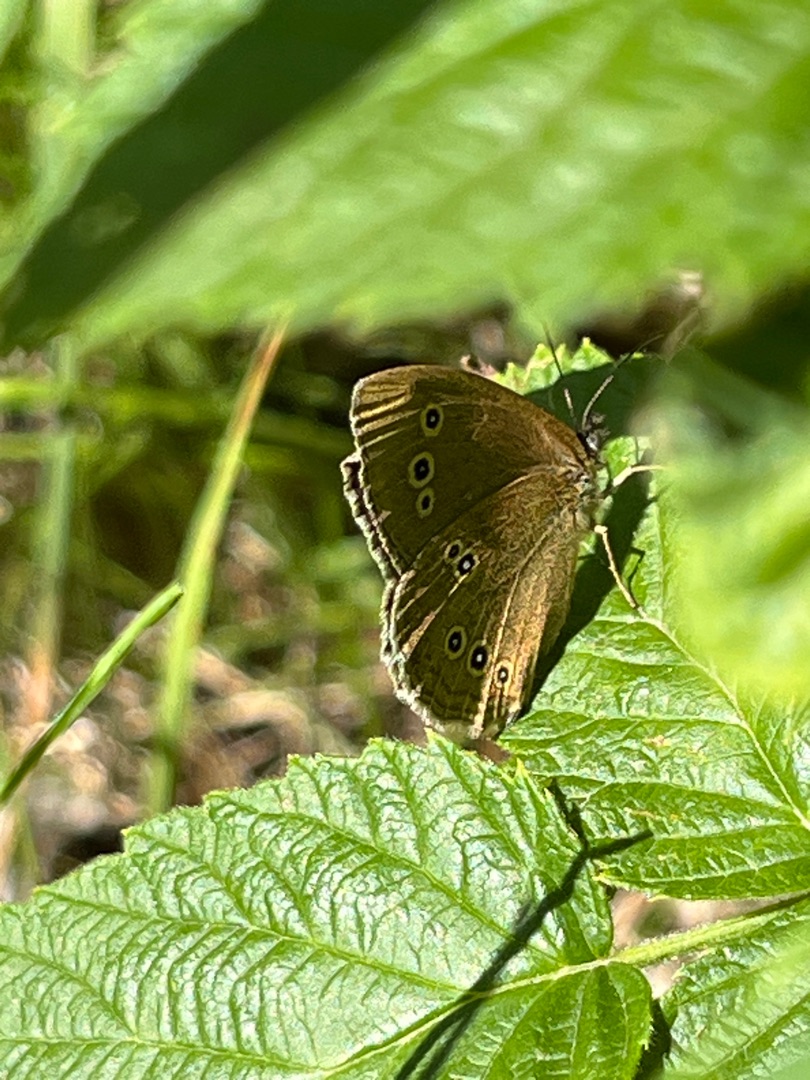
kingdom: Animalia
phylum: Arthropoda
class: Insecta
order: Lepidoptera
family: Nymphalidae
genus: Aphantopus
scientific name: Aphantopus hyperantus
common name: Engrandøje
